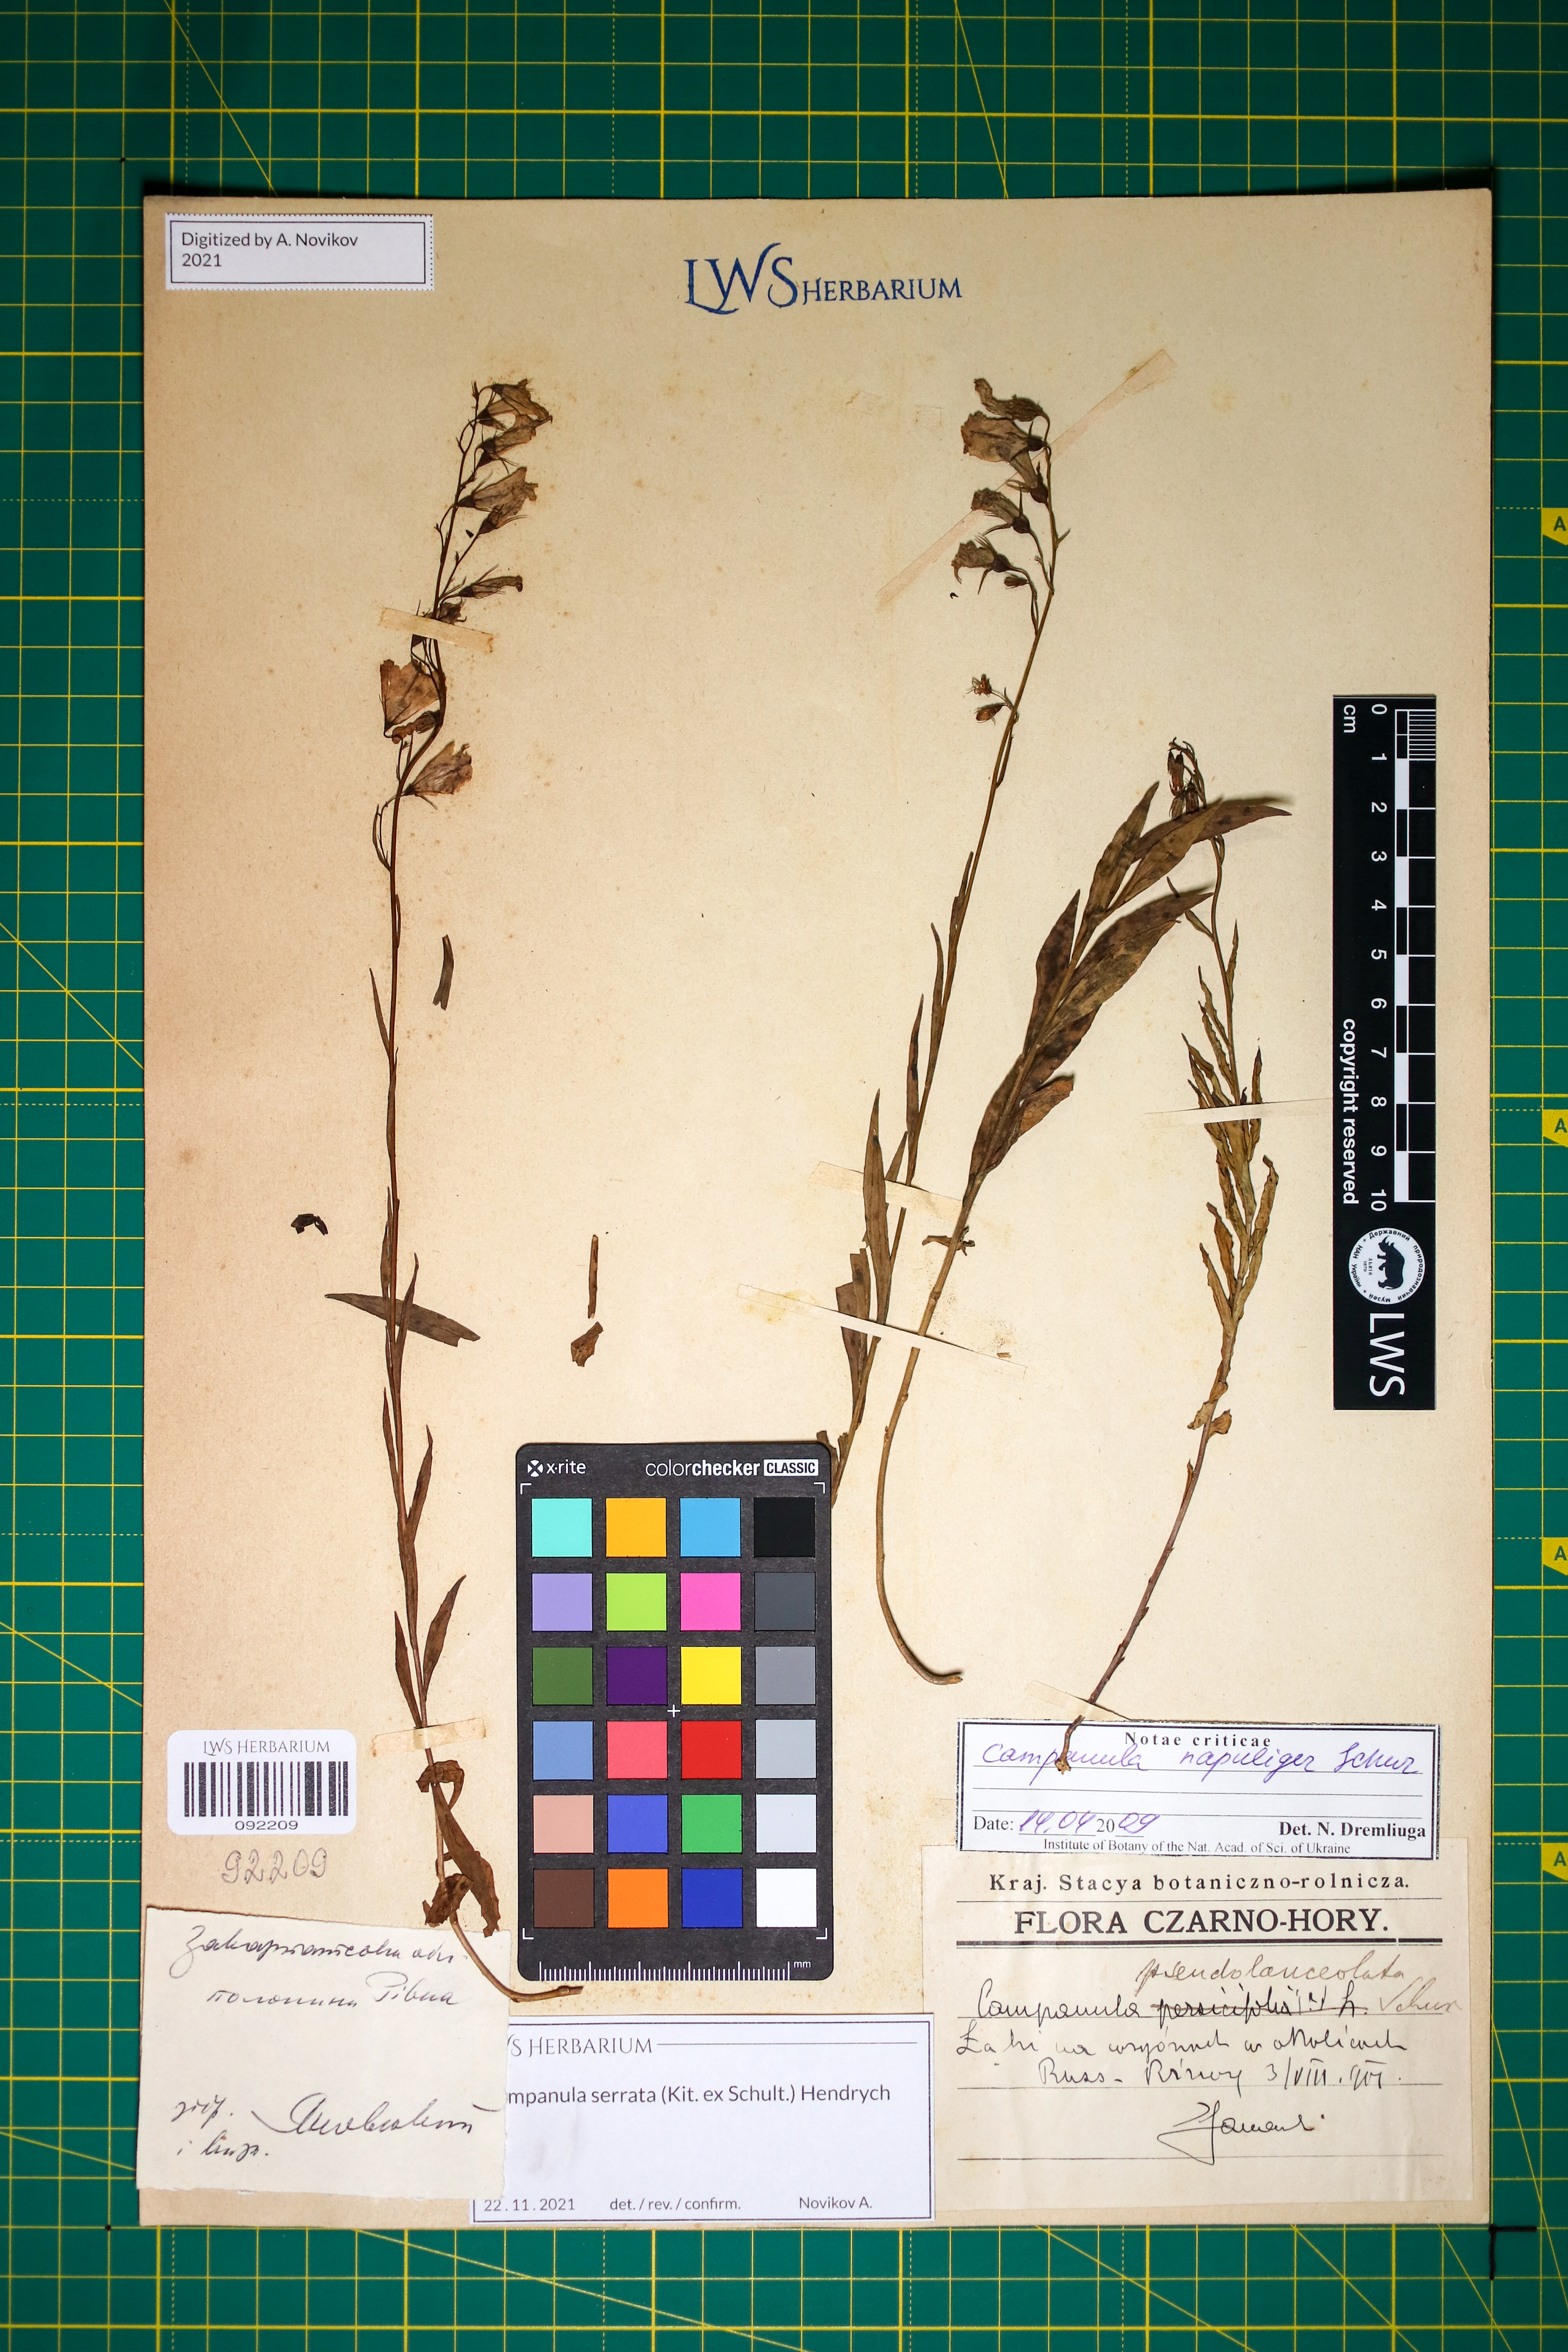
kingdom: Plantae
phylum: Tracheophyta
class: Magnoliopsida
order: Asterales
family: Campanulaceae
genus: Campanula
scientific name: Campanula serrata
